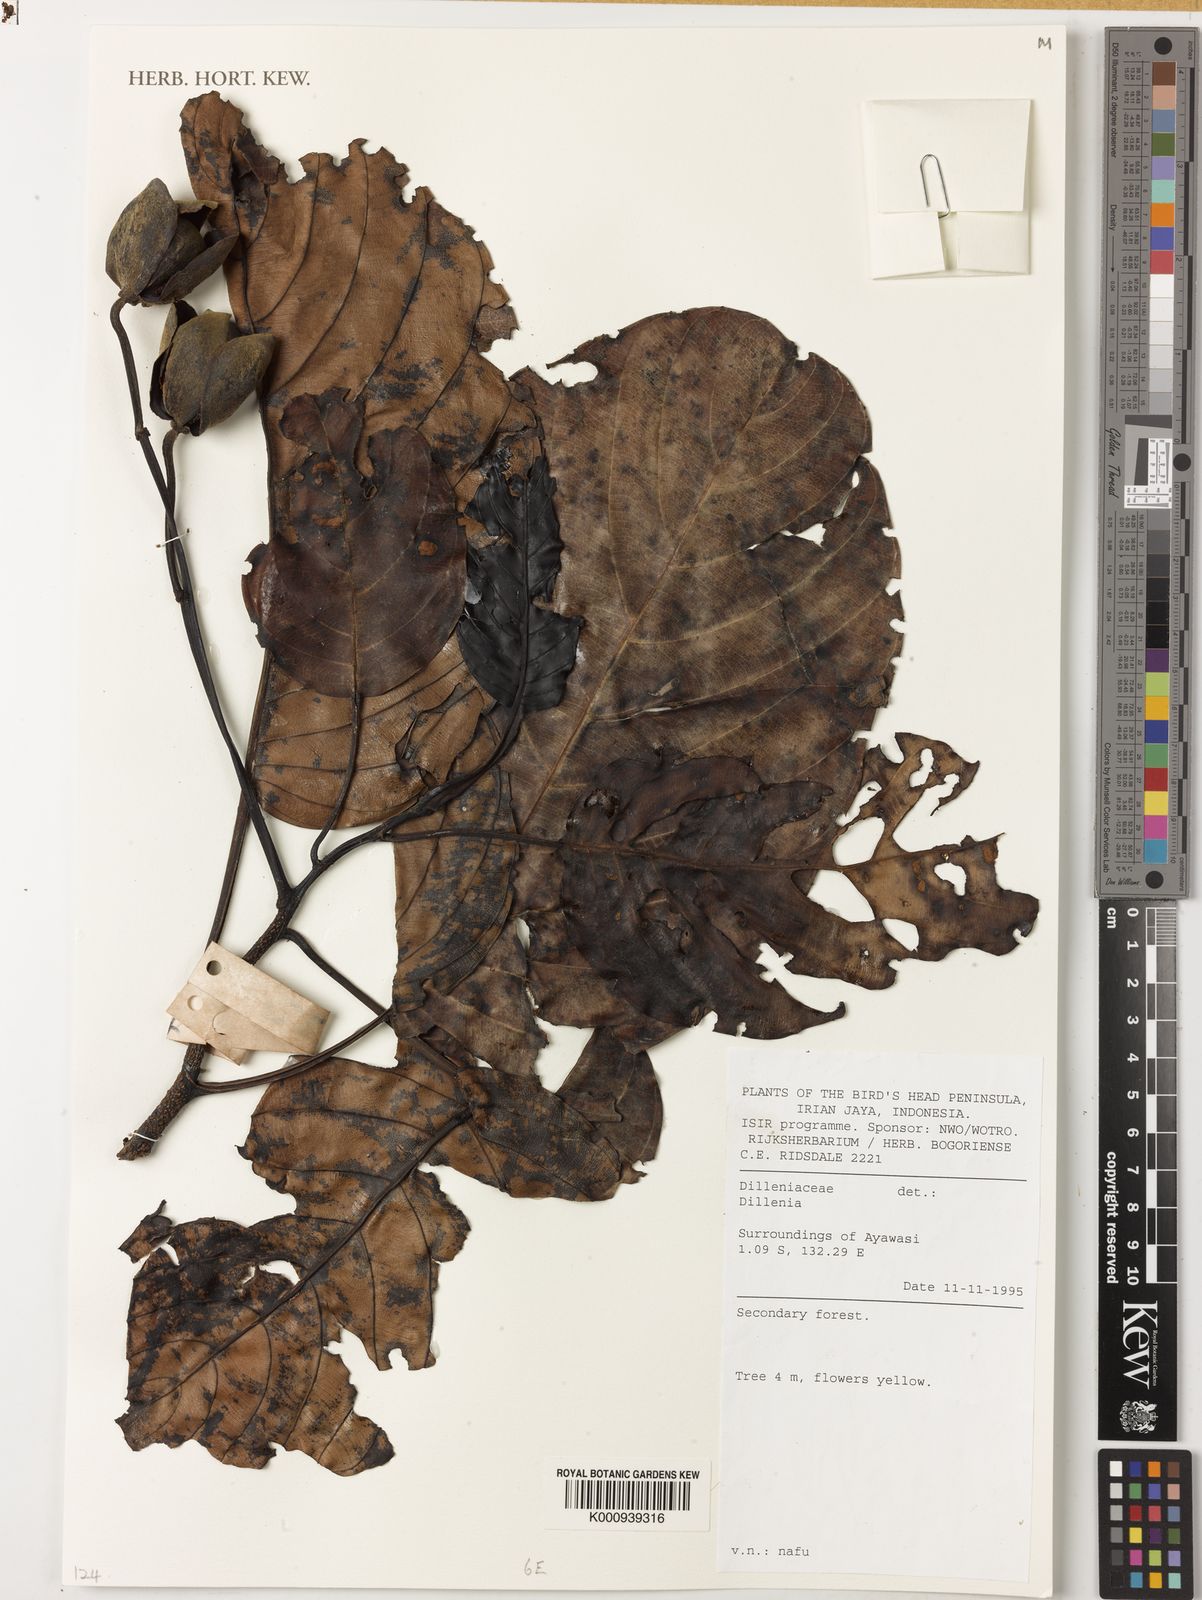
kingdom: Plantae
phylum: Tracheophyta
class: Magnoliopsida
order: Dilleniales
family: Dilleniaceae
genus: Dillenia
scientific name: Dillenia
